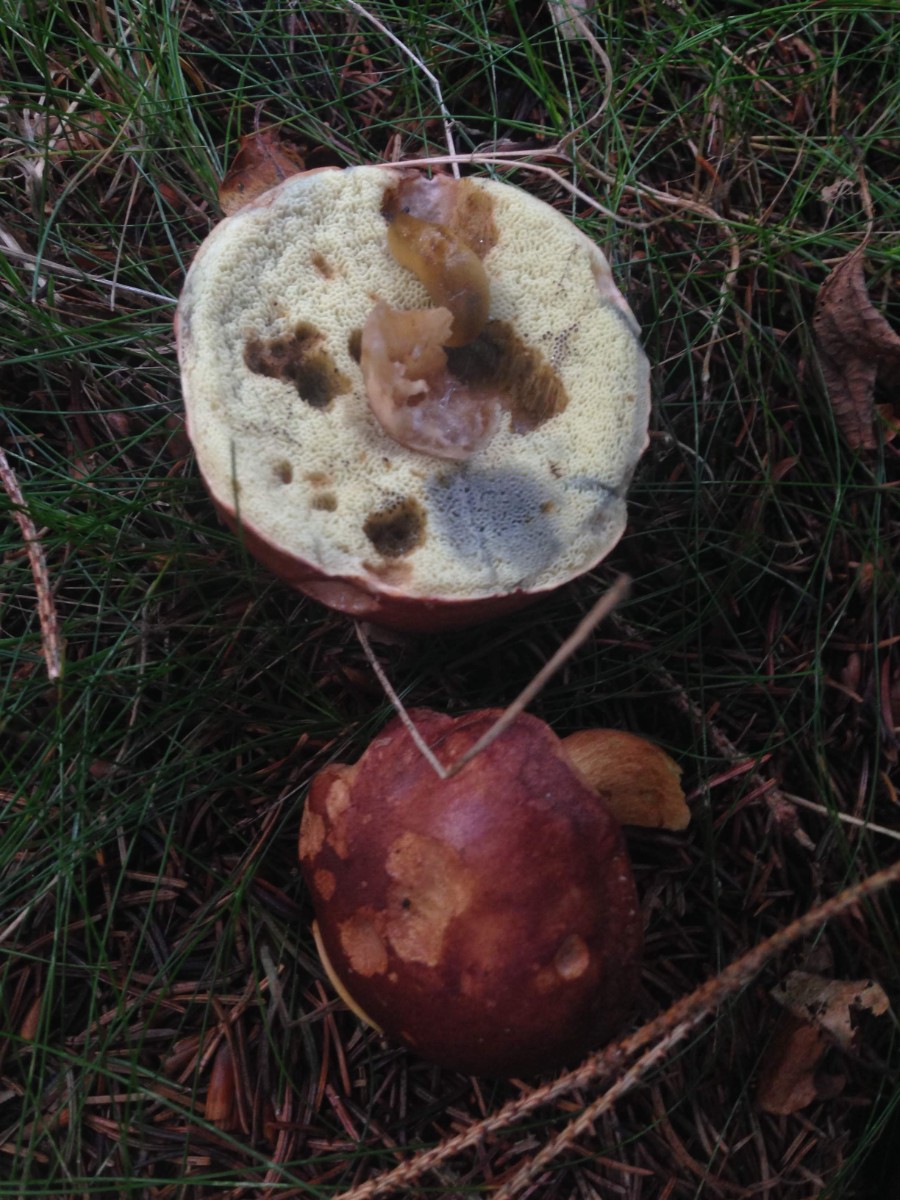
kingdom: Fungi
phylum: Basidiomycota
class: Agaricomycetes
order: Boletales
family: Boletaceae
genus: Imleria
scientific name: Imleria badia
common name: brunstokket rørhat
